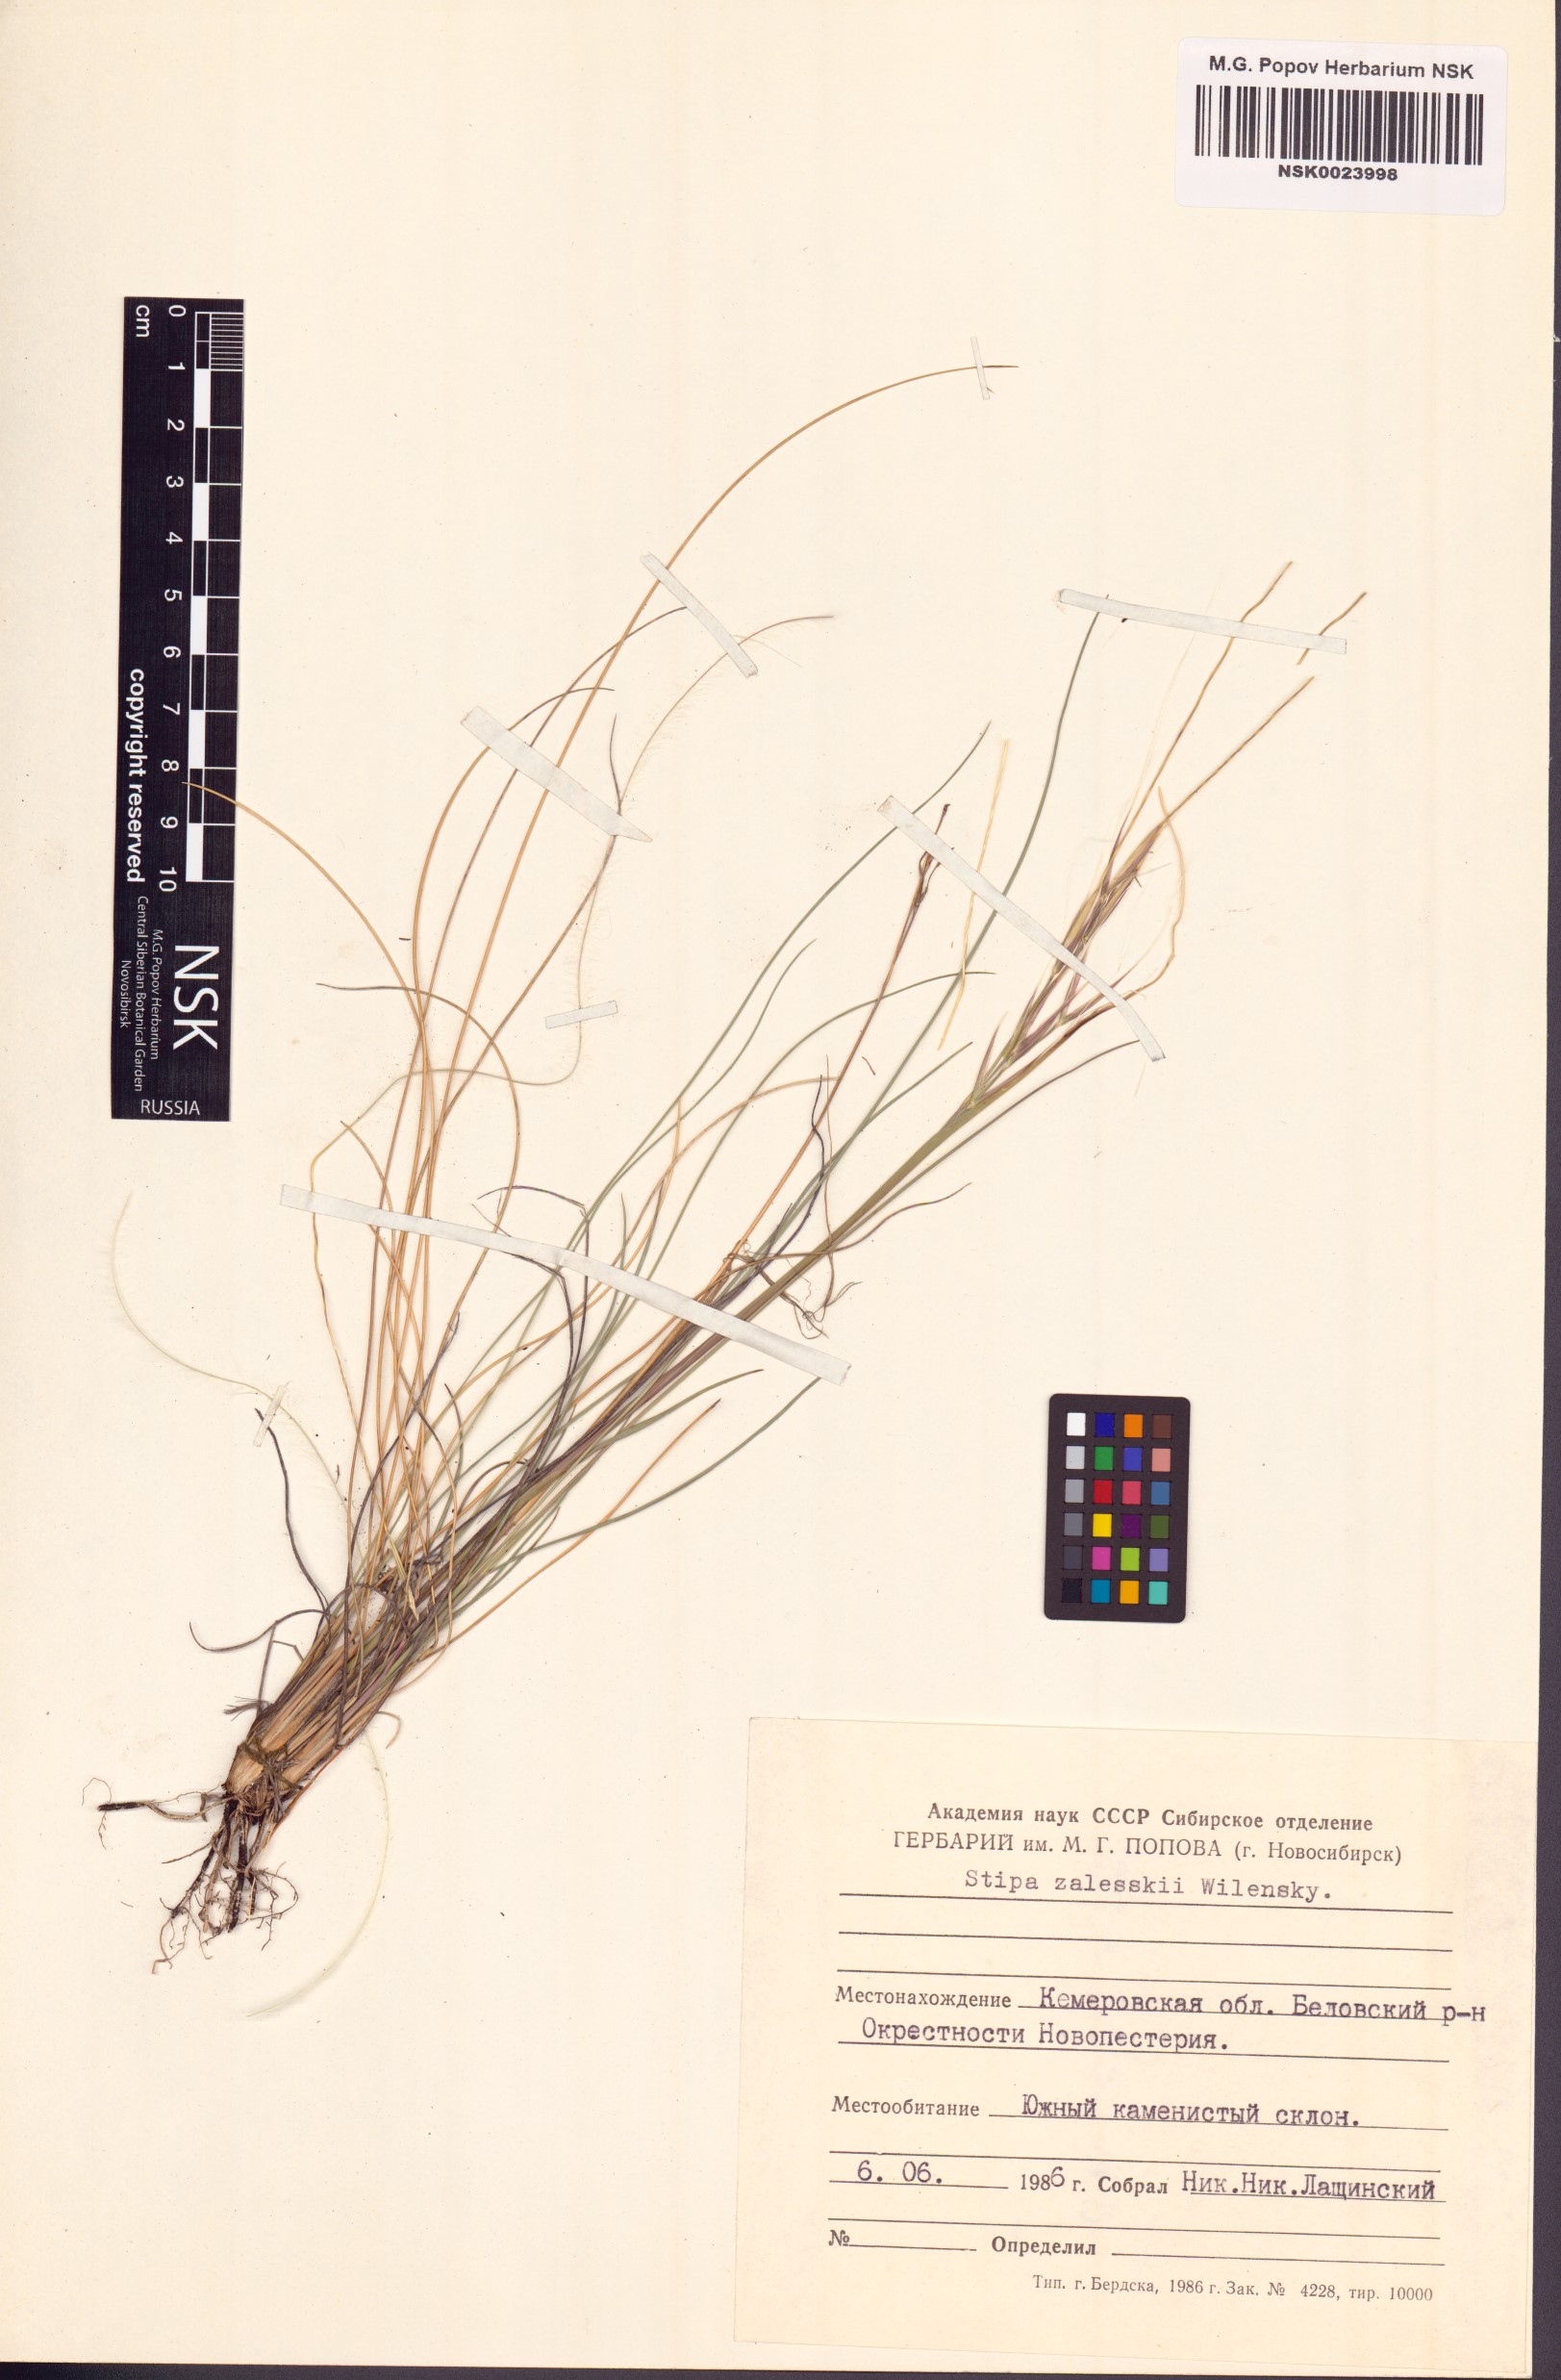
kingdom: Plantae
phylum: Tracheophyta
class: Liliopsida
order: Poales
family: Poaceae
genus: Stipa
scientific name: Stipa zalesskii
